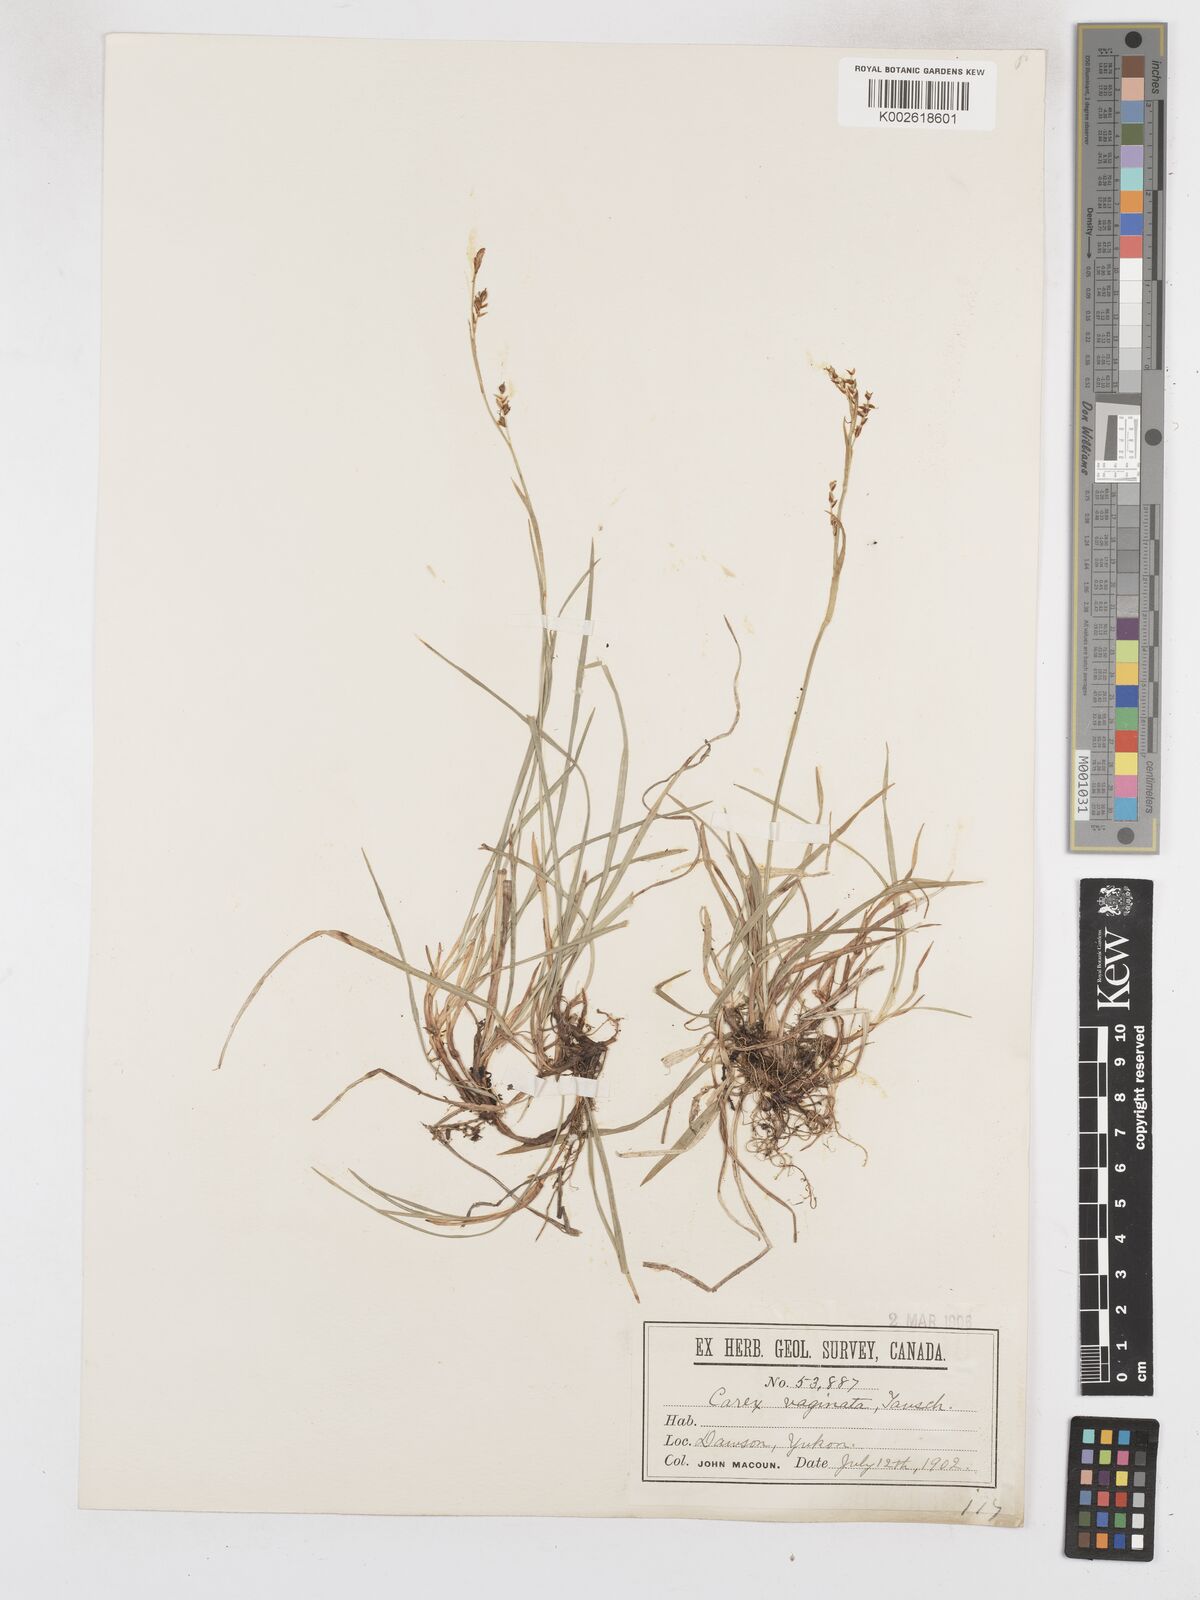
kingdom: Plantae
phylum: Tracheophyta
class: Liliopsida
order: Poales
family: Cyperaceae
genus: Carex
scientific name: Carex vaginata
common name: Sheathed sedge
